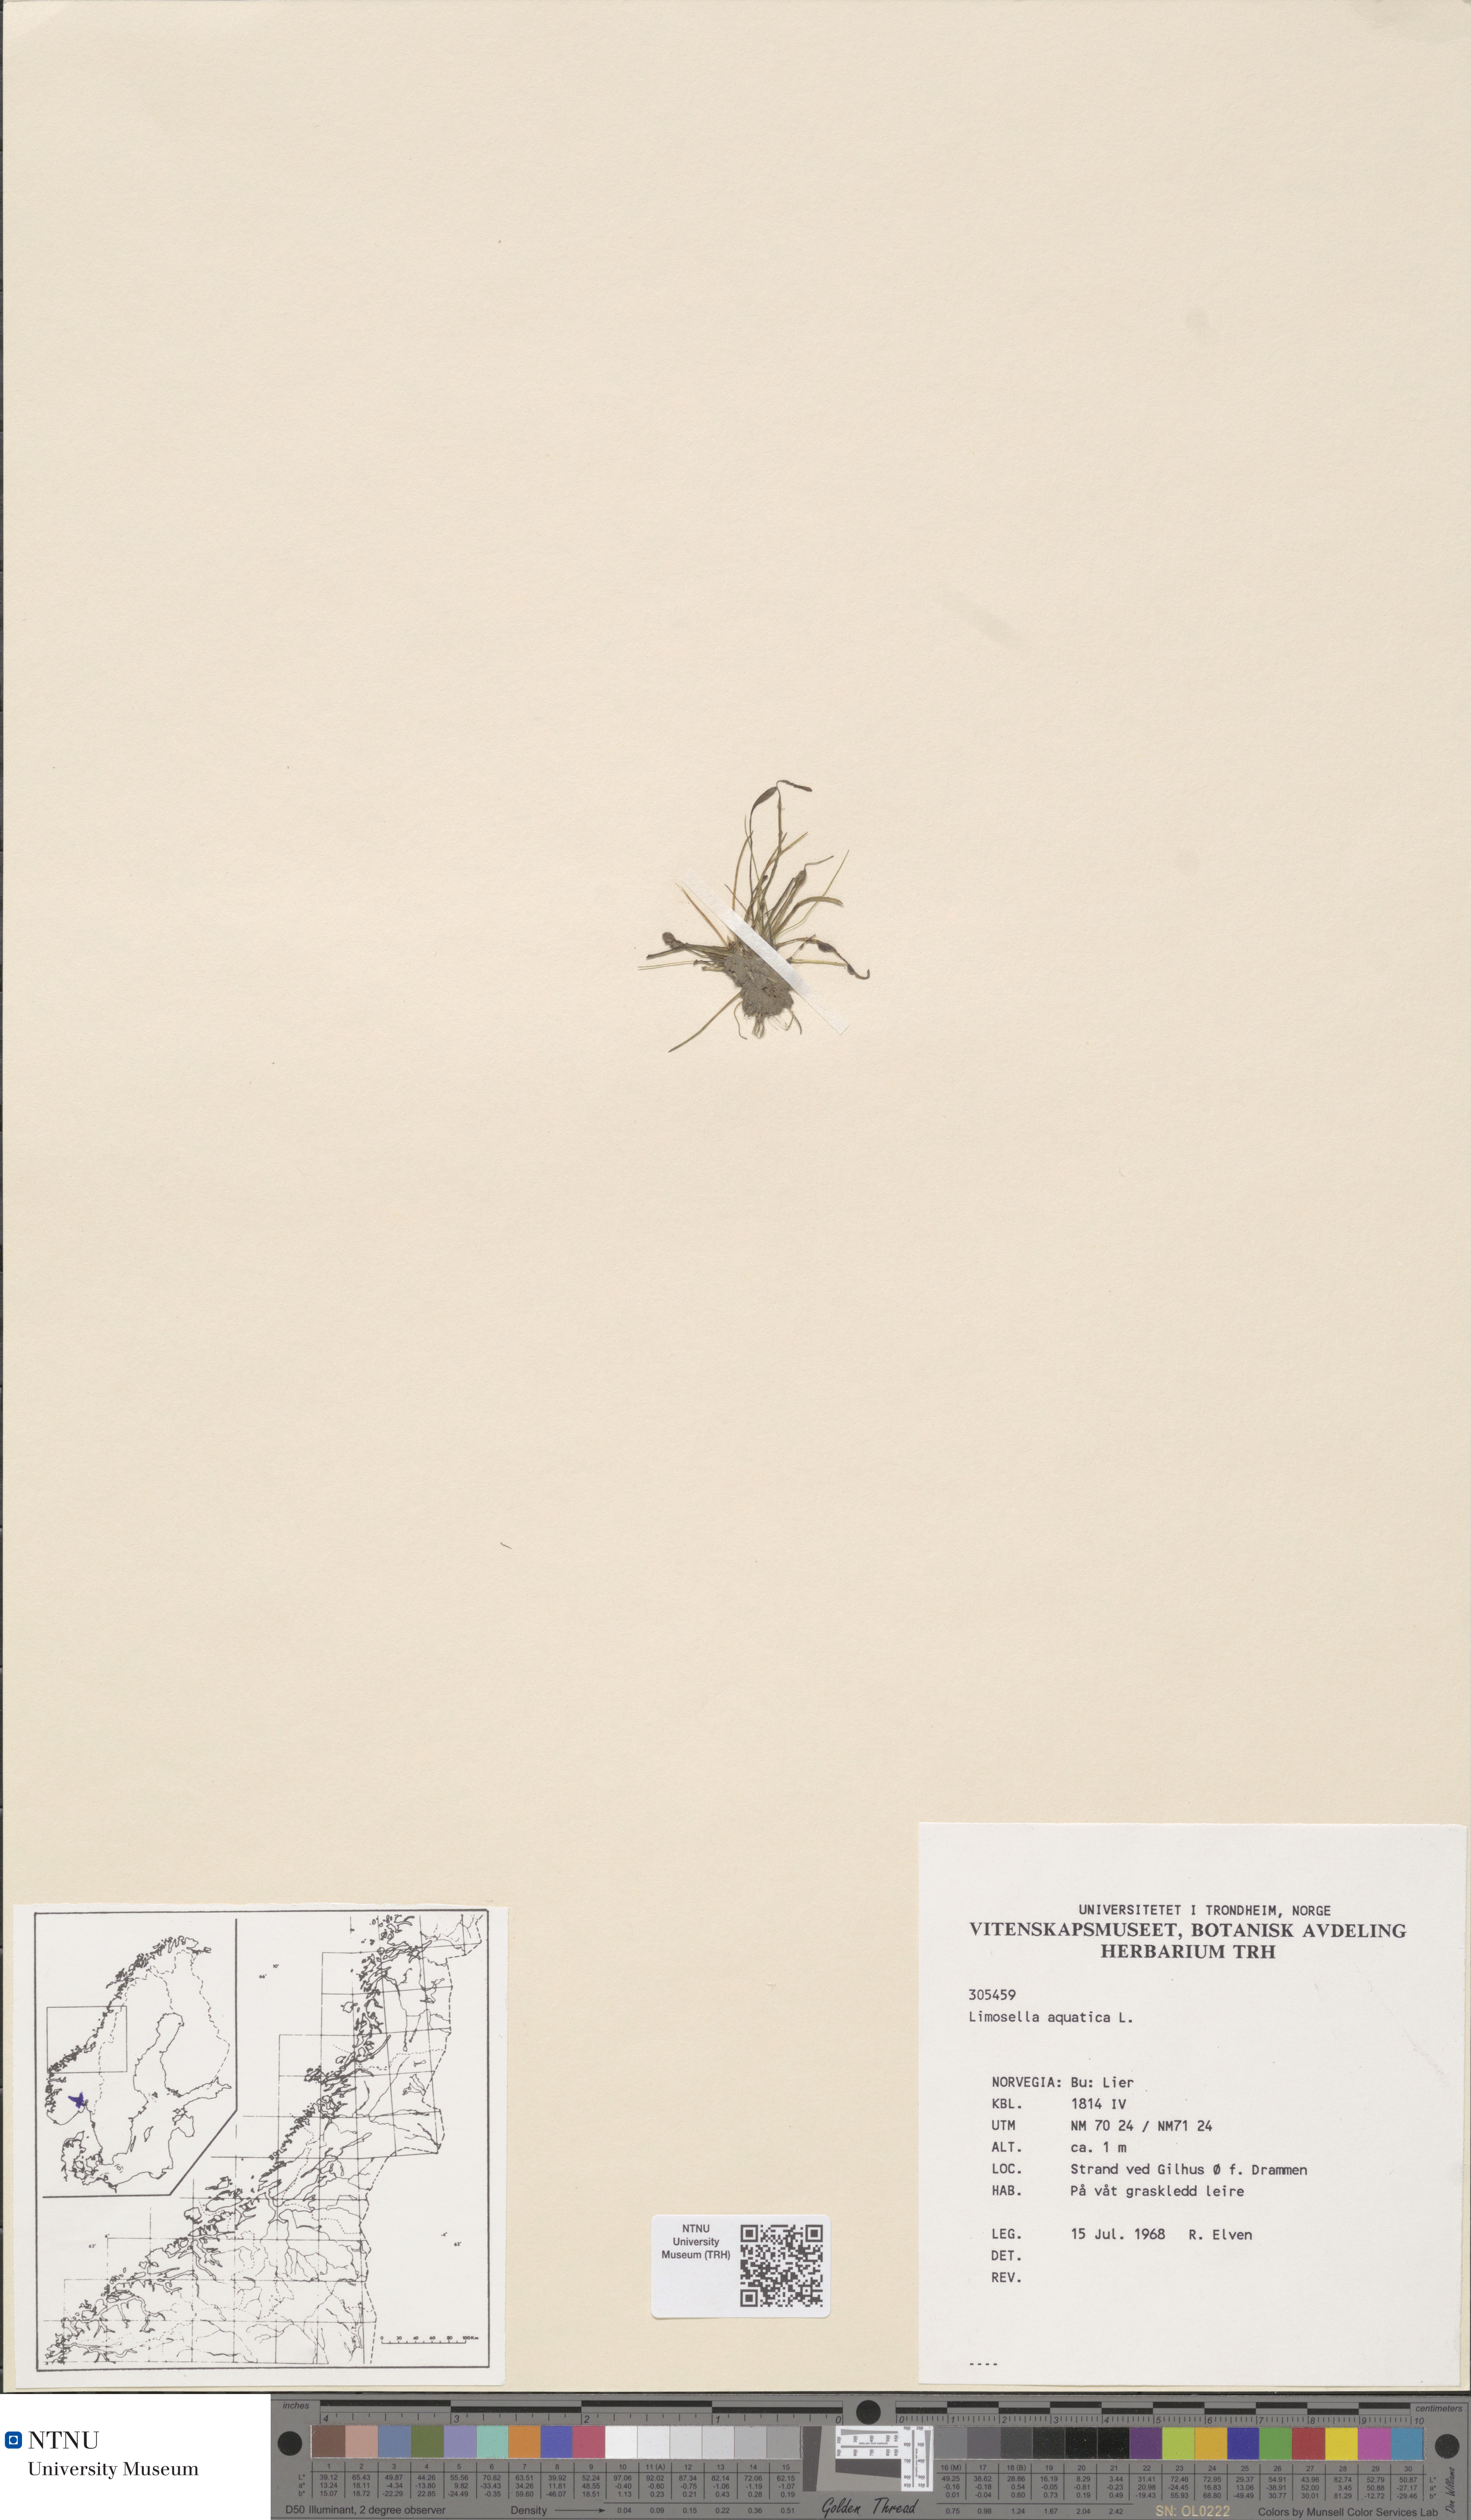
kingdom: Plantae
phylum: Tracheophyta
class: Magnoliopsida
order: Lamiales
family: Scrophulariaceae
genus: Limosella
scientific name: Limosella aquatica
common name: Mudwort
